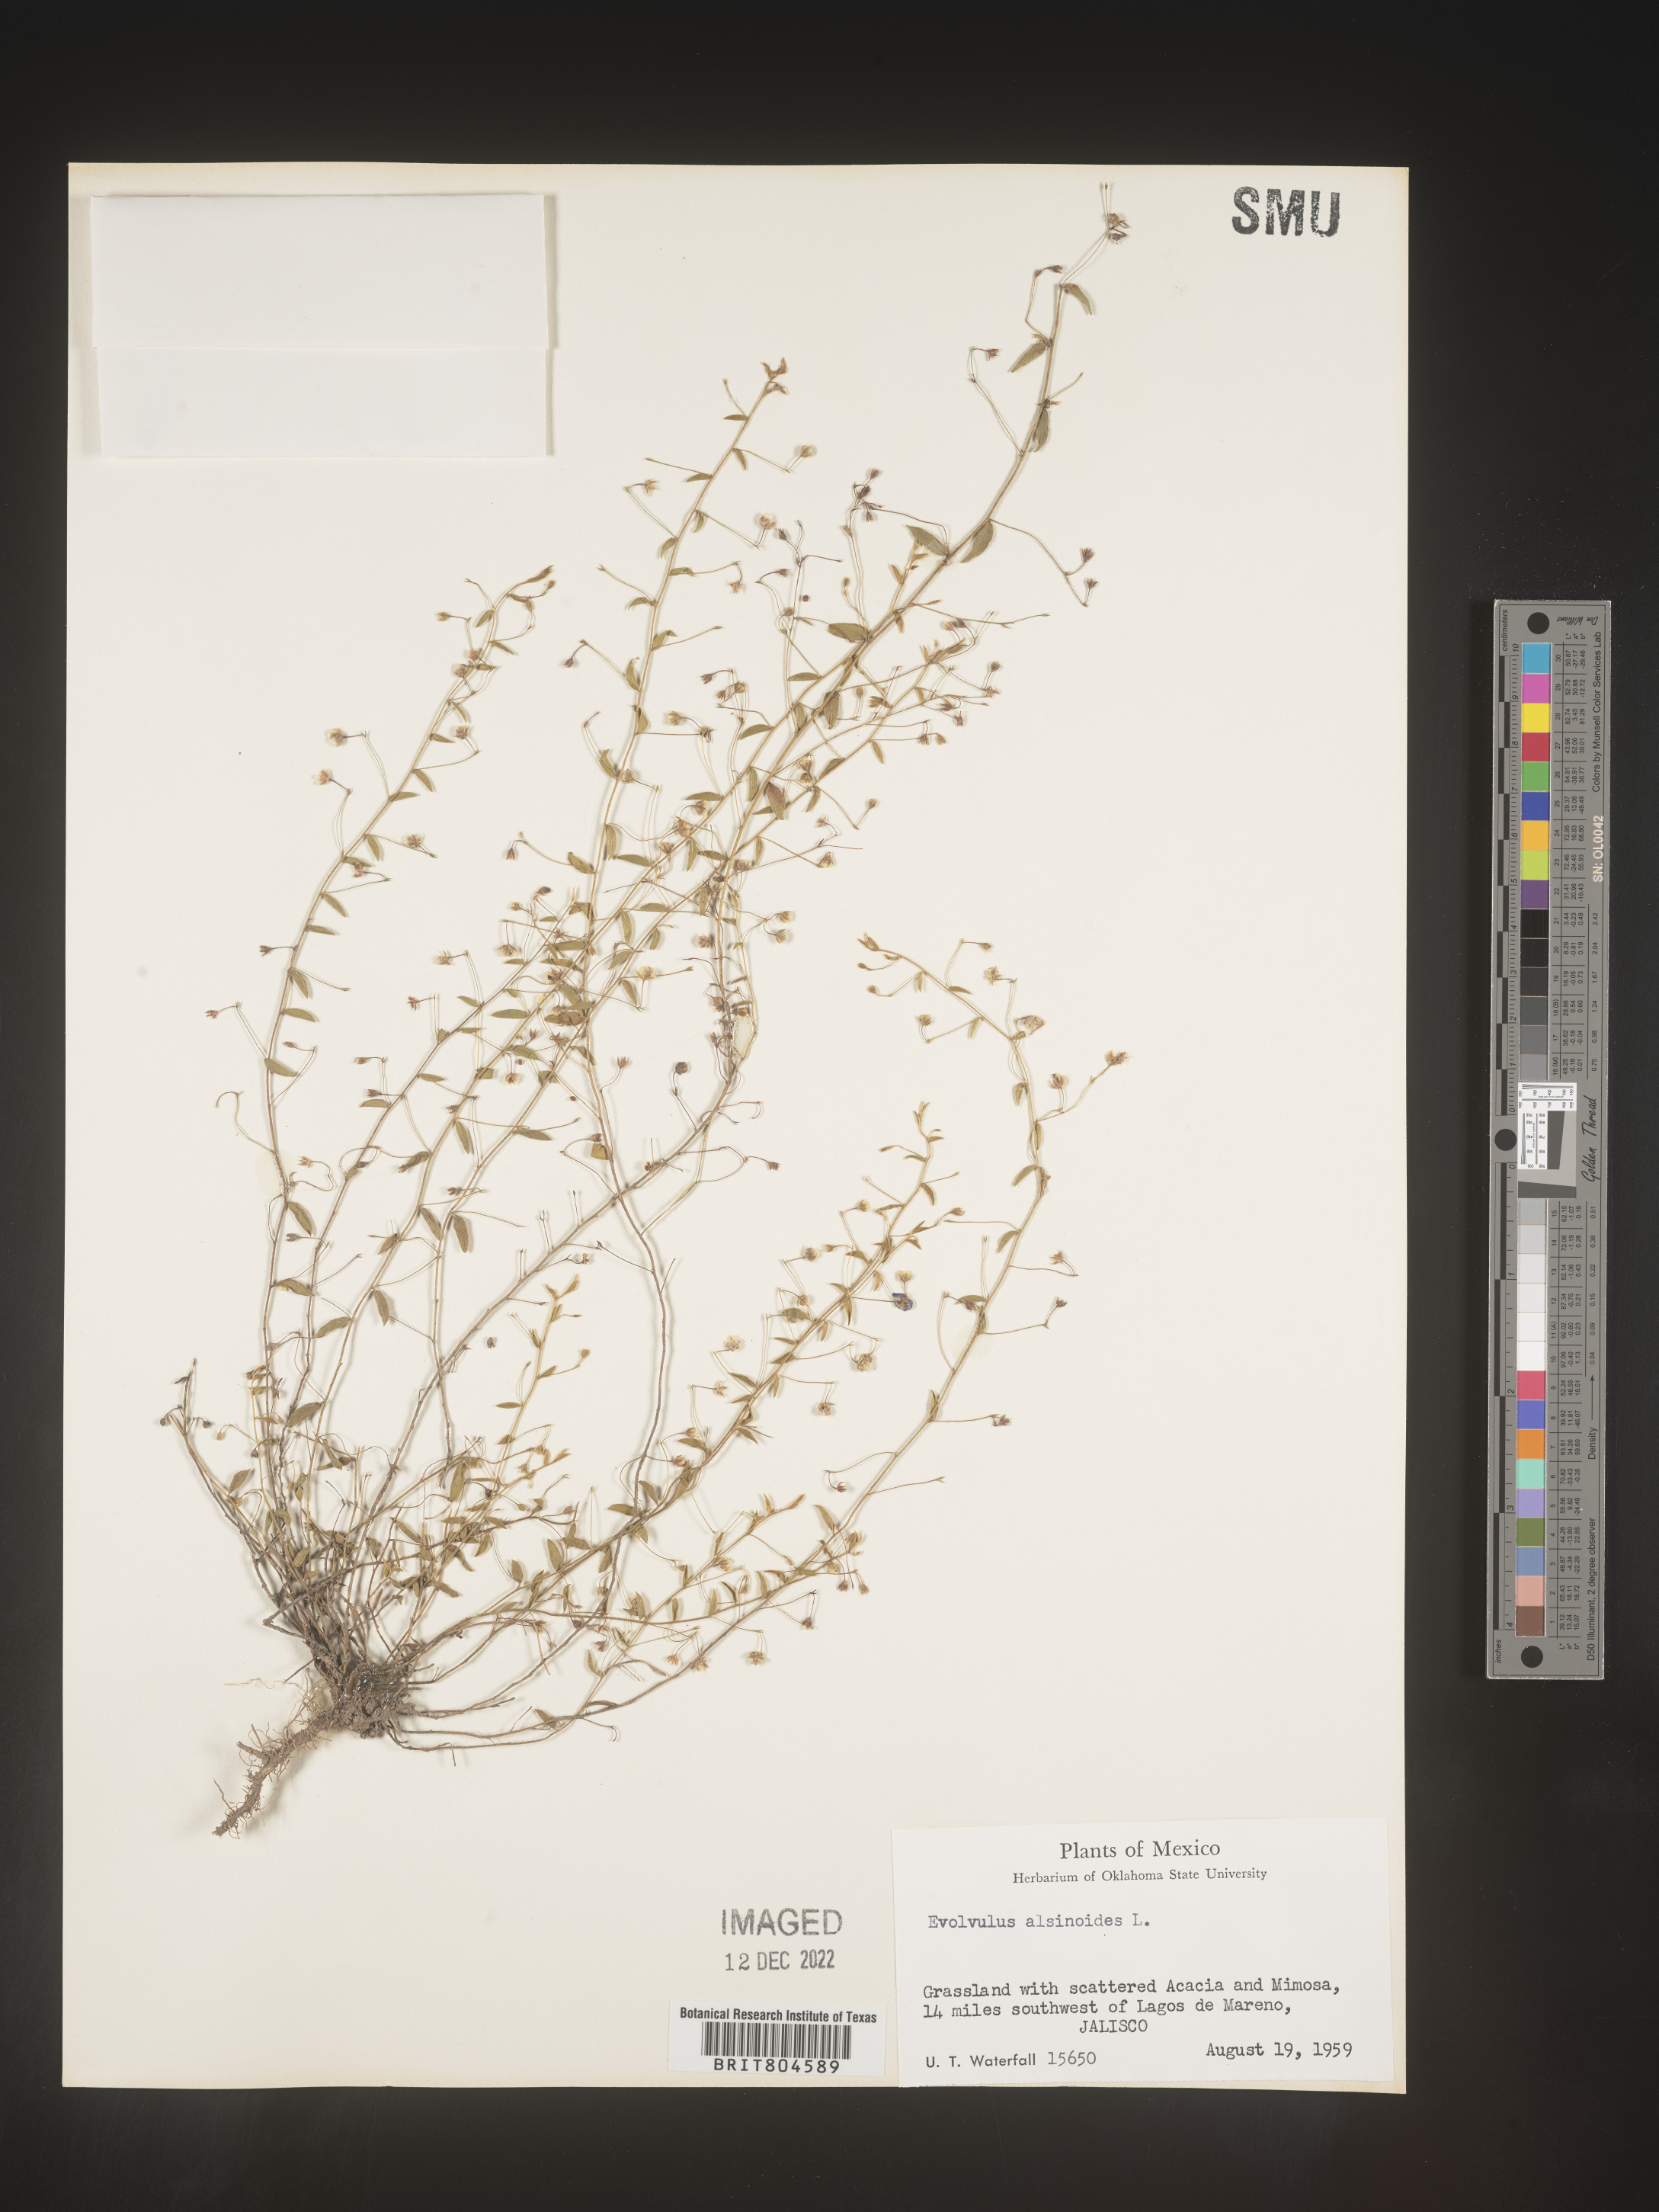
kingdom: Plantae
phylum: Tracheophyta
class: Magnoliopsida
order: Solanales
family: Convolvulaceae
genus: Evolvulus
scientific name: Evolvulus
